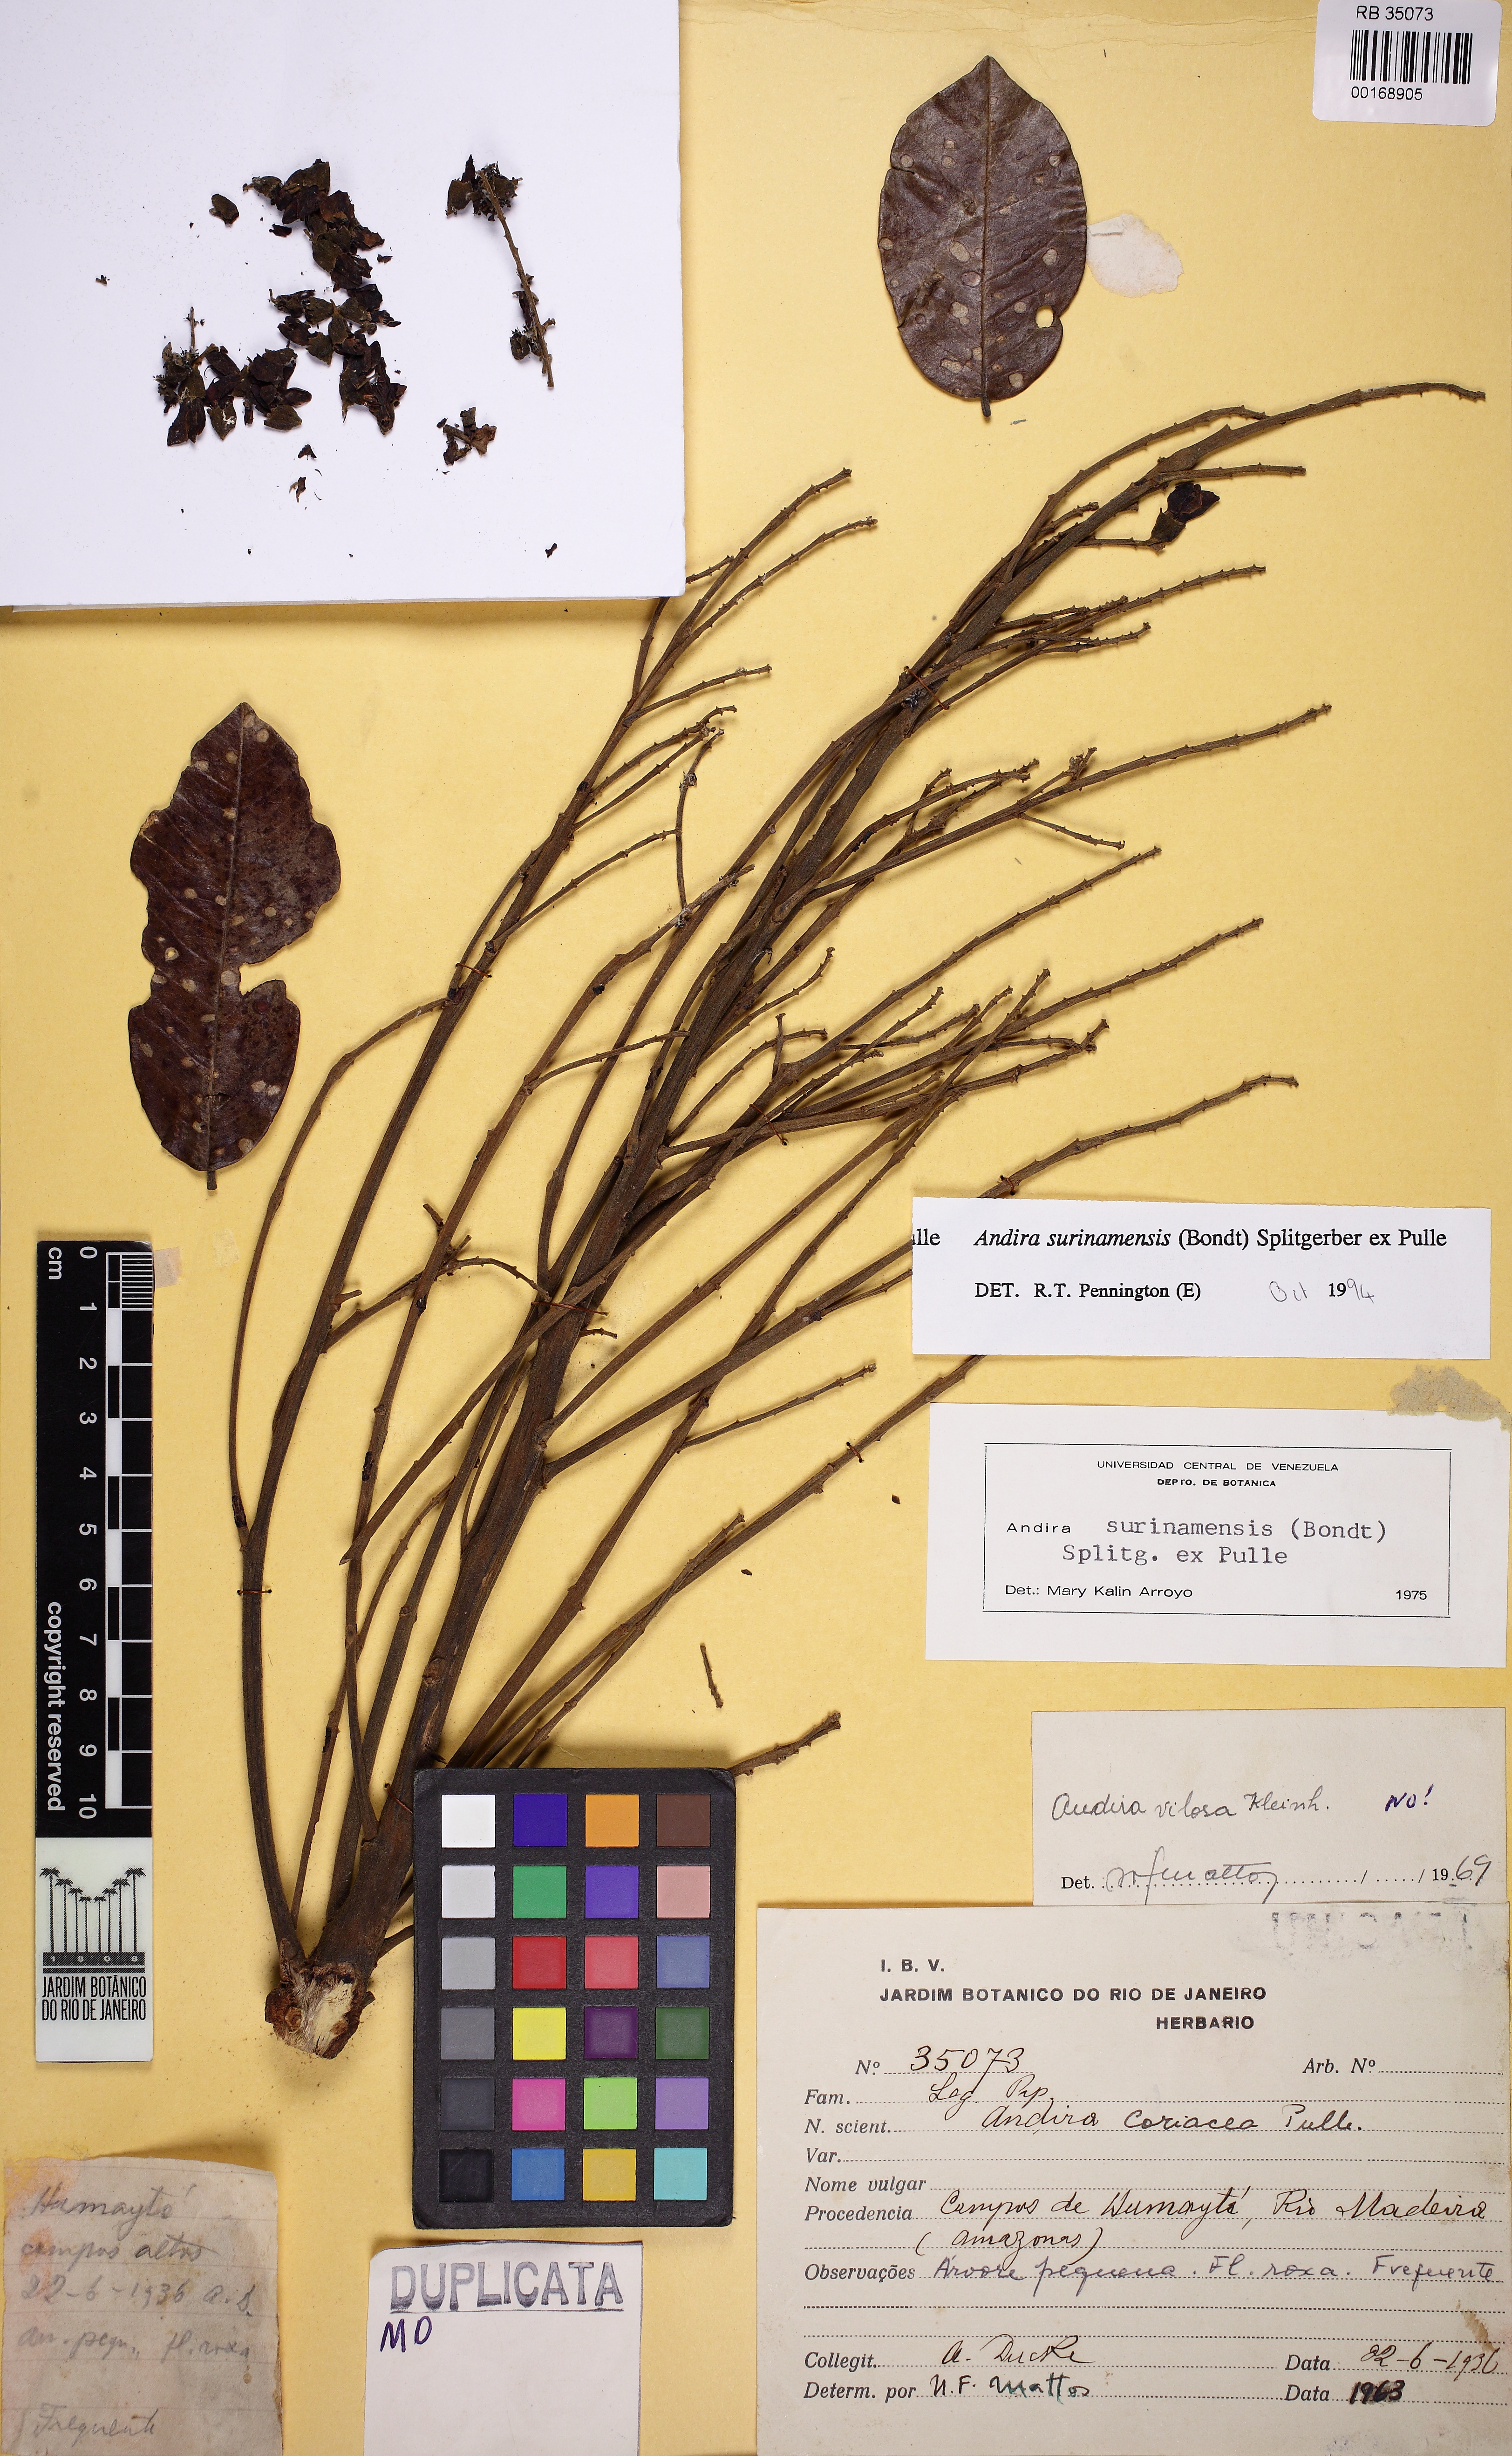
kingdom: Plantae
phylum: Tracheophyta
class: Magnoliopsida
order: Fabales
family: Fabaceae
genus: Andira
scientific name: Andira coriacea
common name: St. martin rouge
